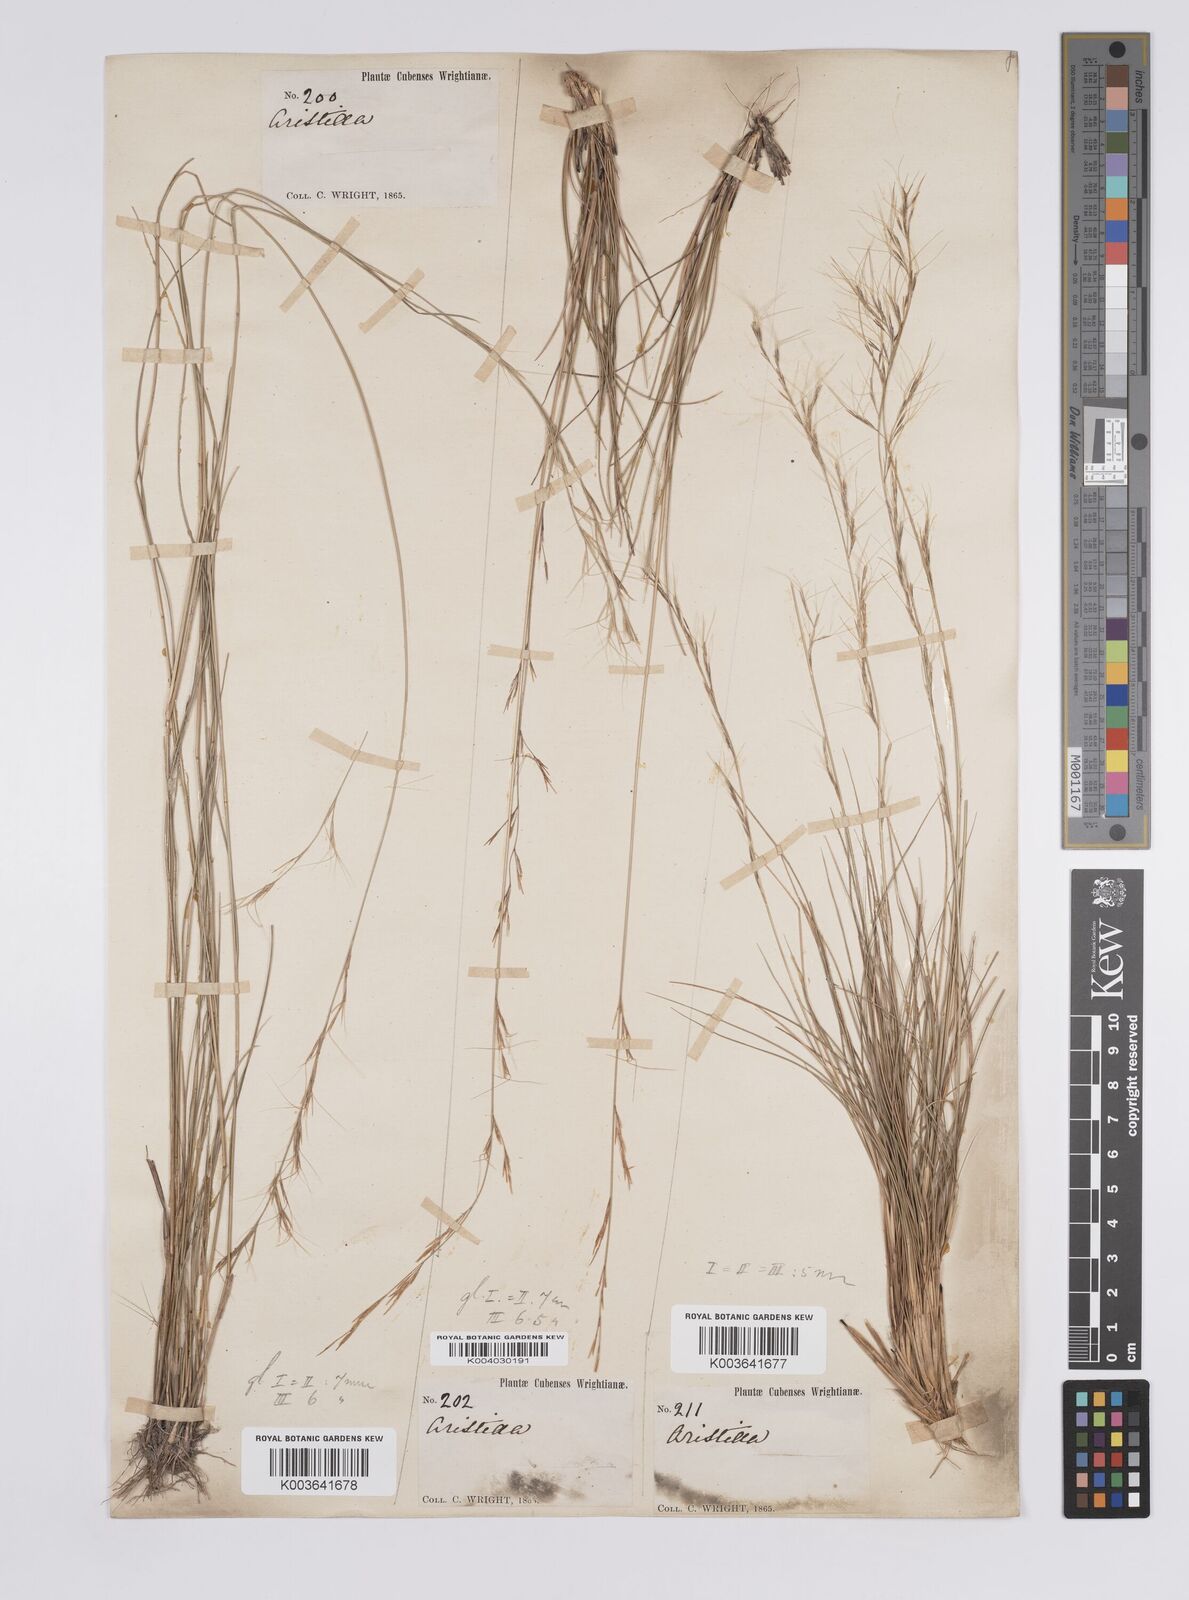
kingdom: Plantae
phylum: Tracheophyta
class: Liliopsida
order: Poales
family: Poaceae
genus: Aristida
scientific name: Aristida refracta
